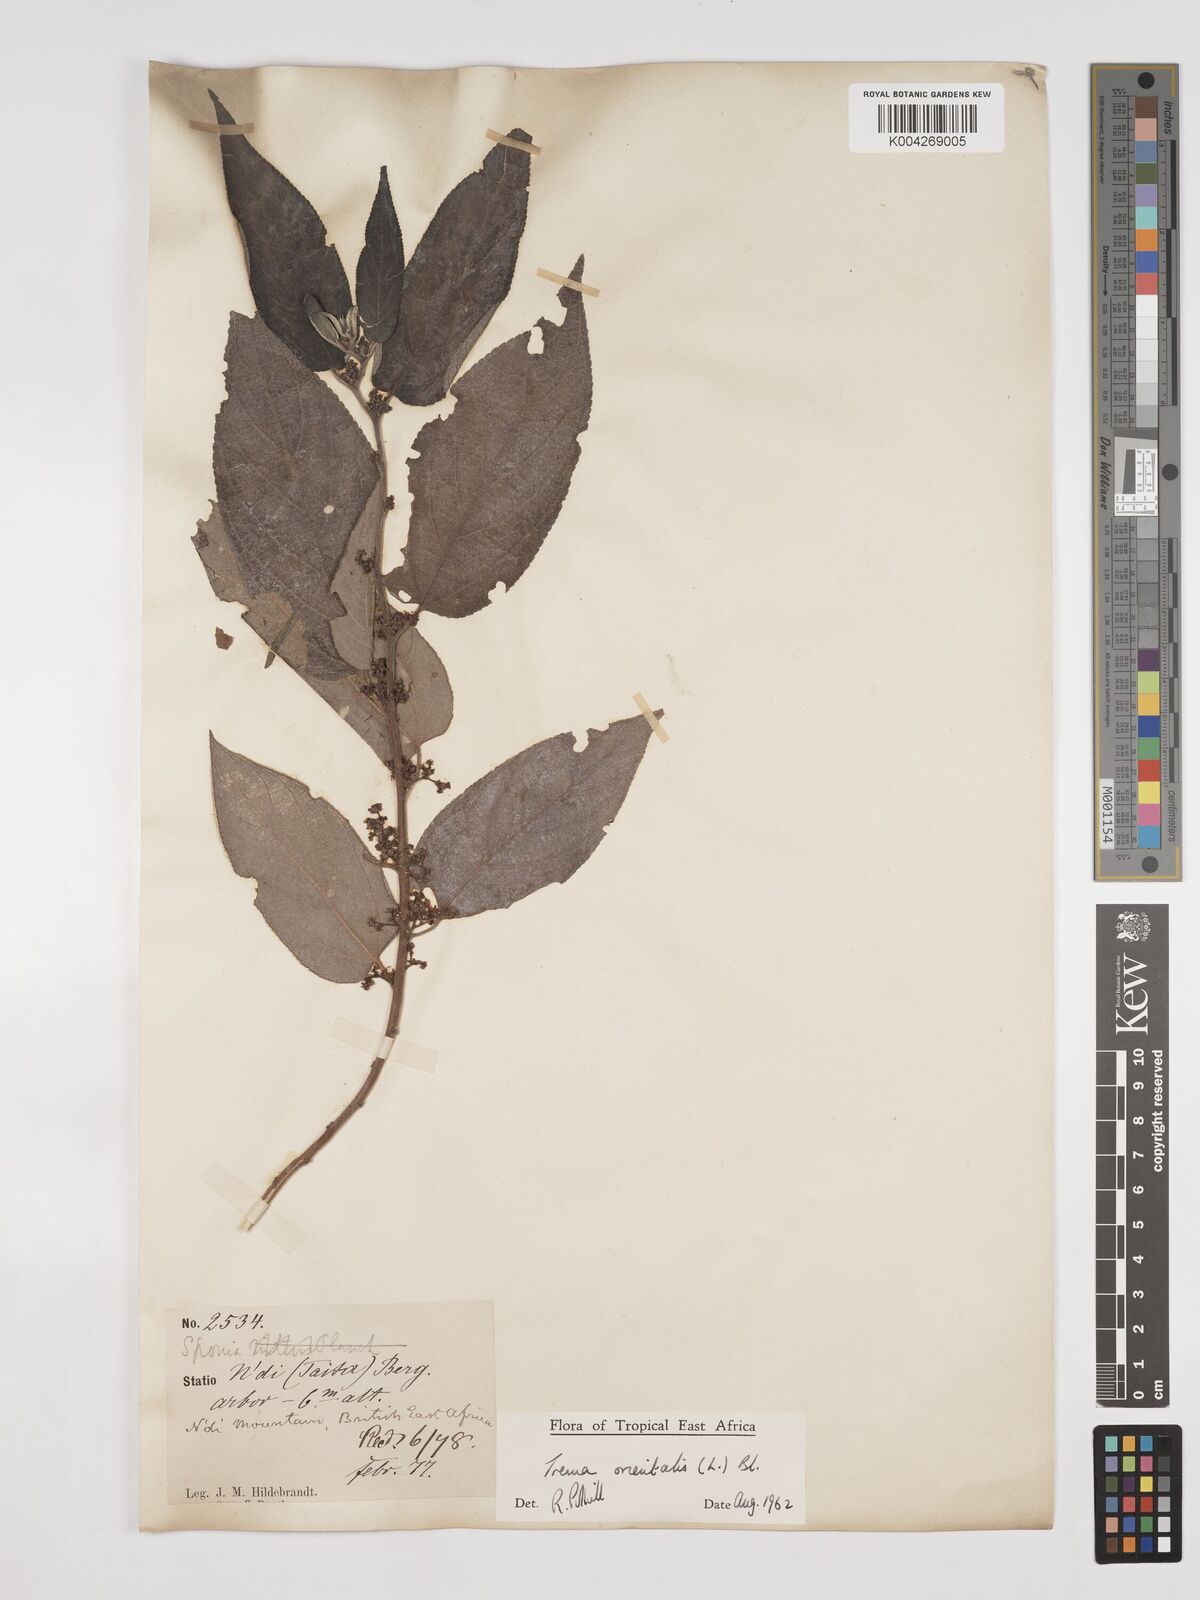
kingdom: Plantae
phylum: Tracheophyta
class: Magnoliopsida
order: Rosales
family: Cannabaceae
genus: Trema
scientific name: Trema orientale
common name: Indian charcoal tree
